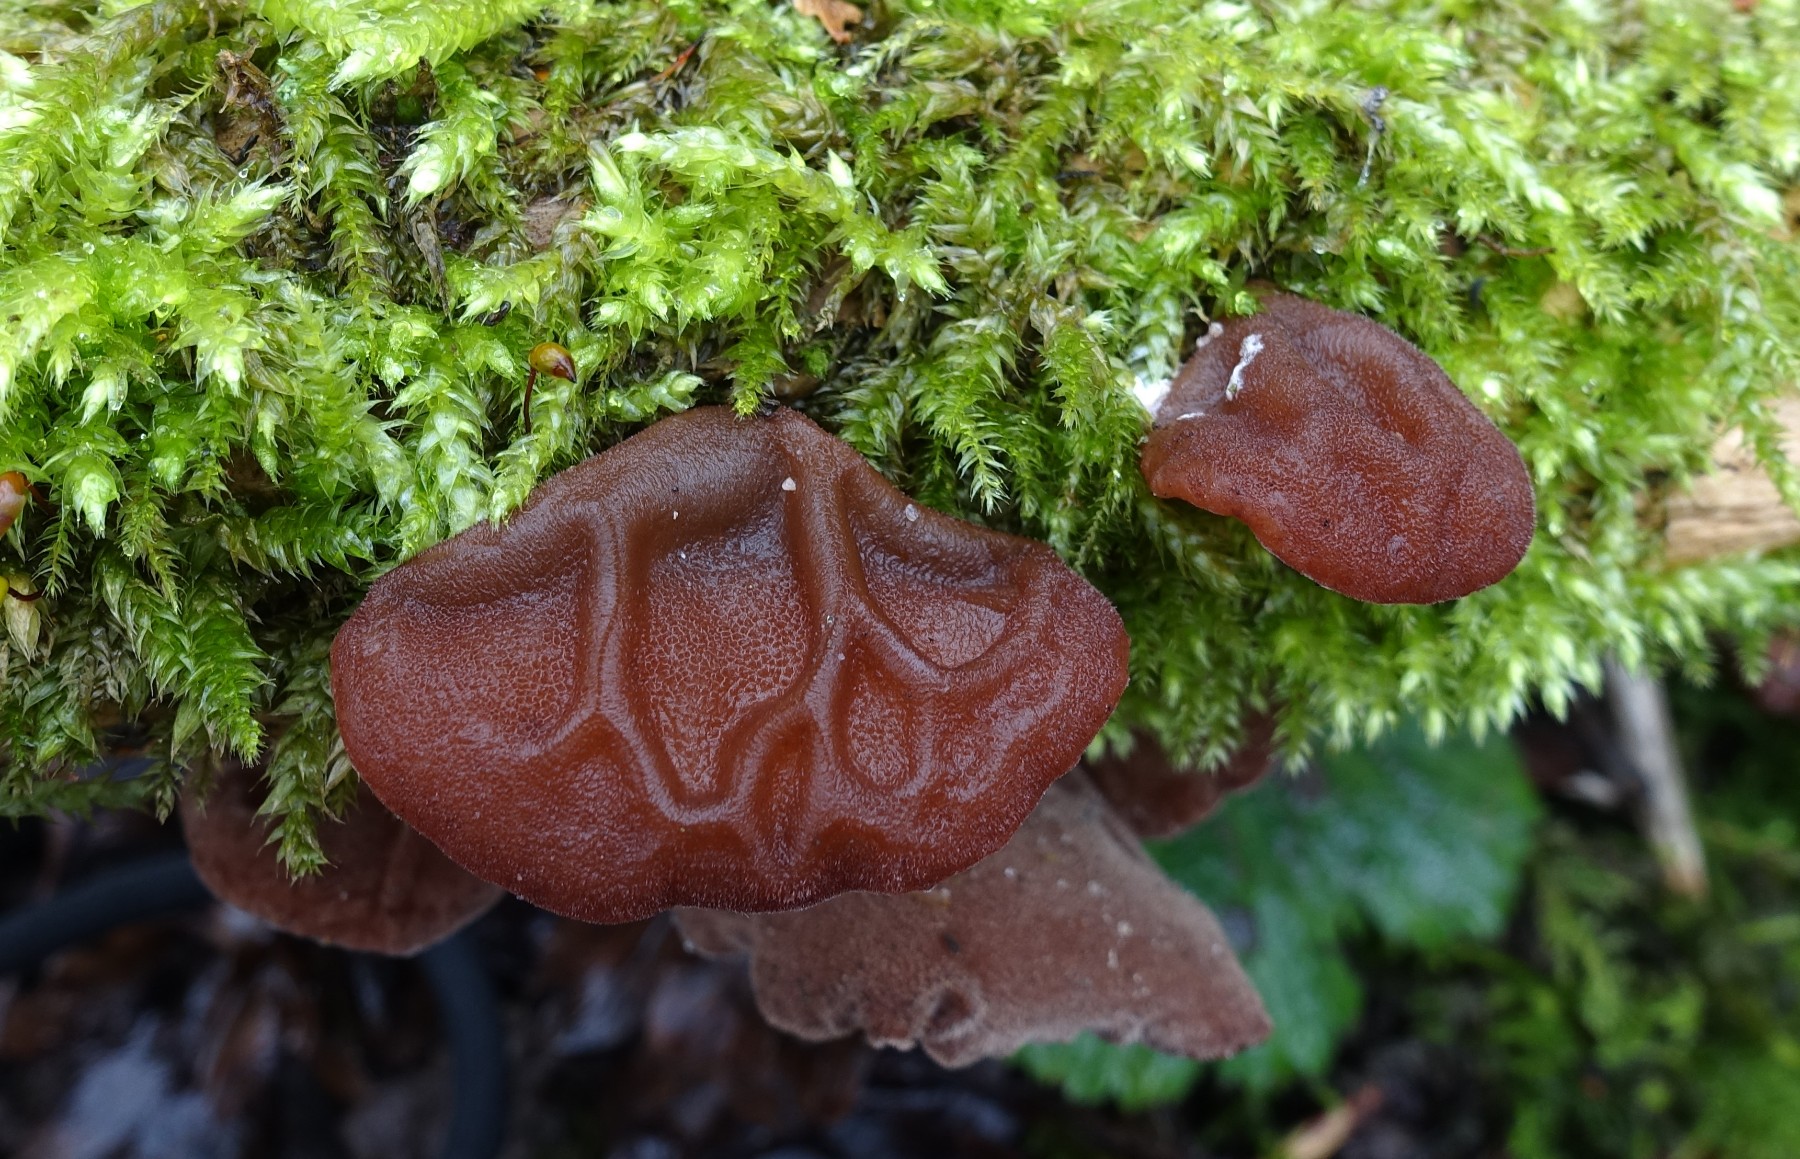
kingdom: Fungi
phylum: Basidiomycota
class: Agaricomycetes
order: Auriculariales
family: Auriculariaceae
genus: Auricularia
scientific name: Auricularia auricula-judae
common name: almindelig judasøre
